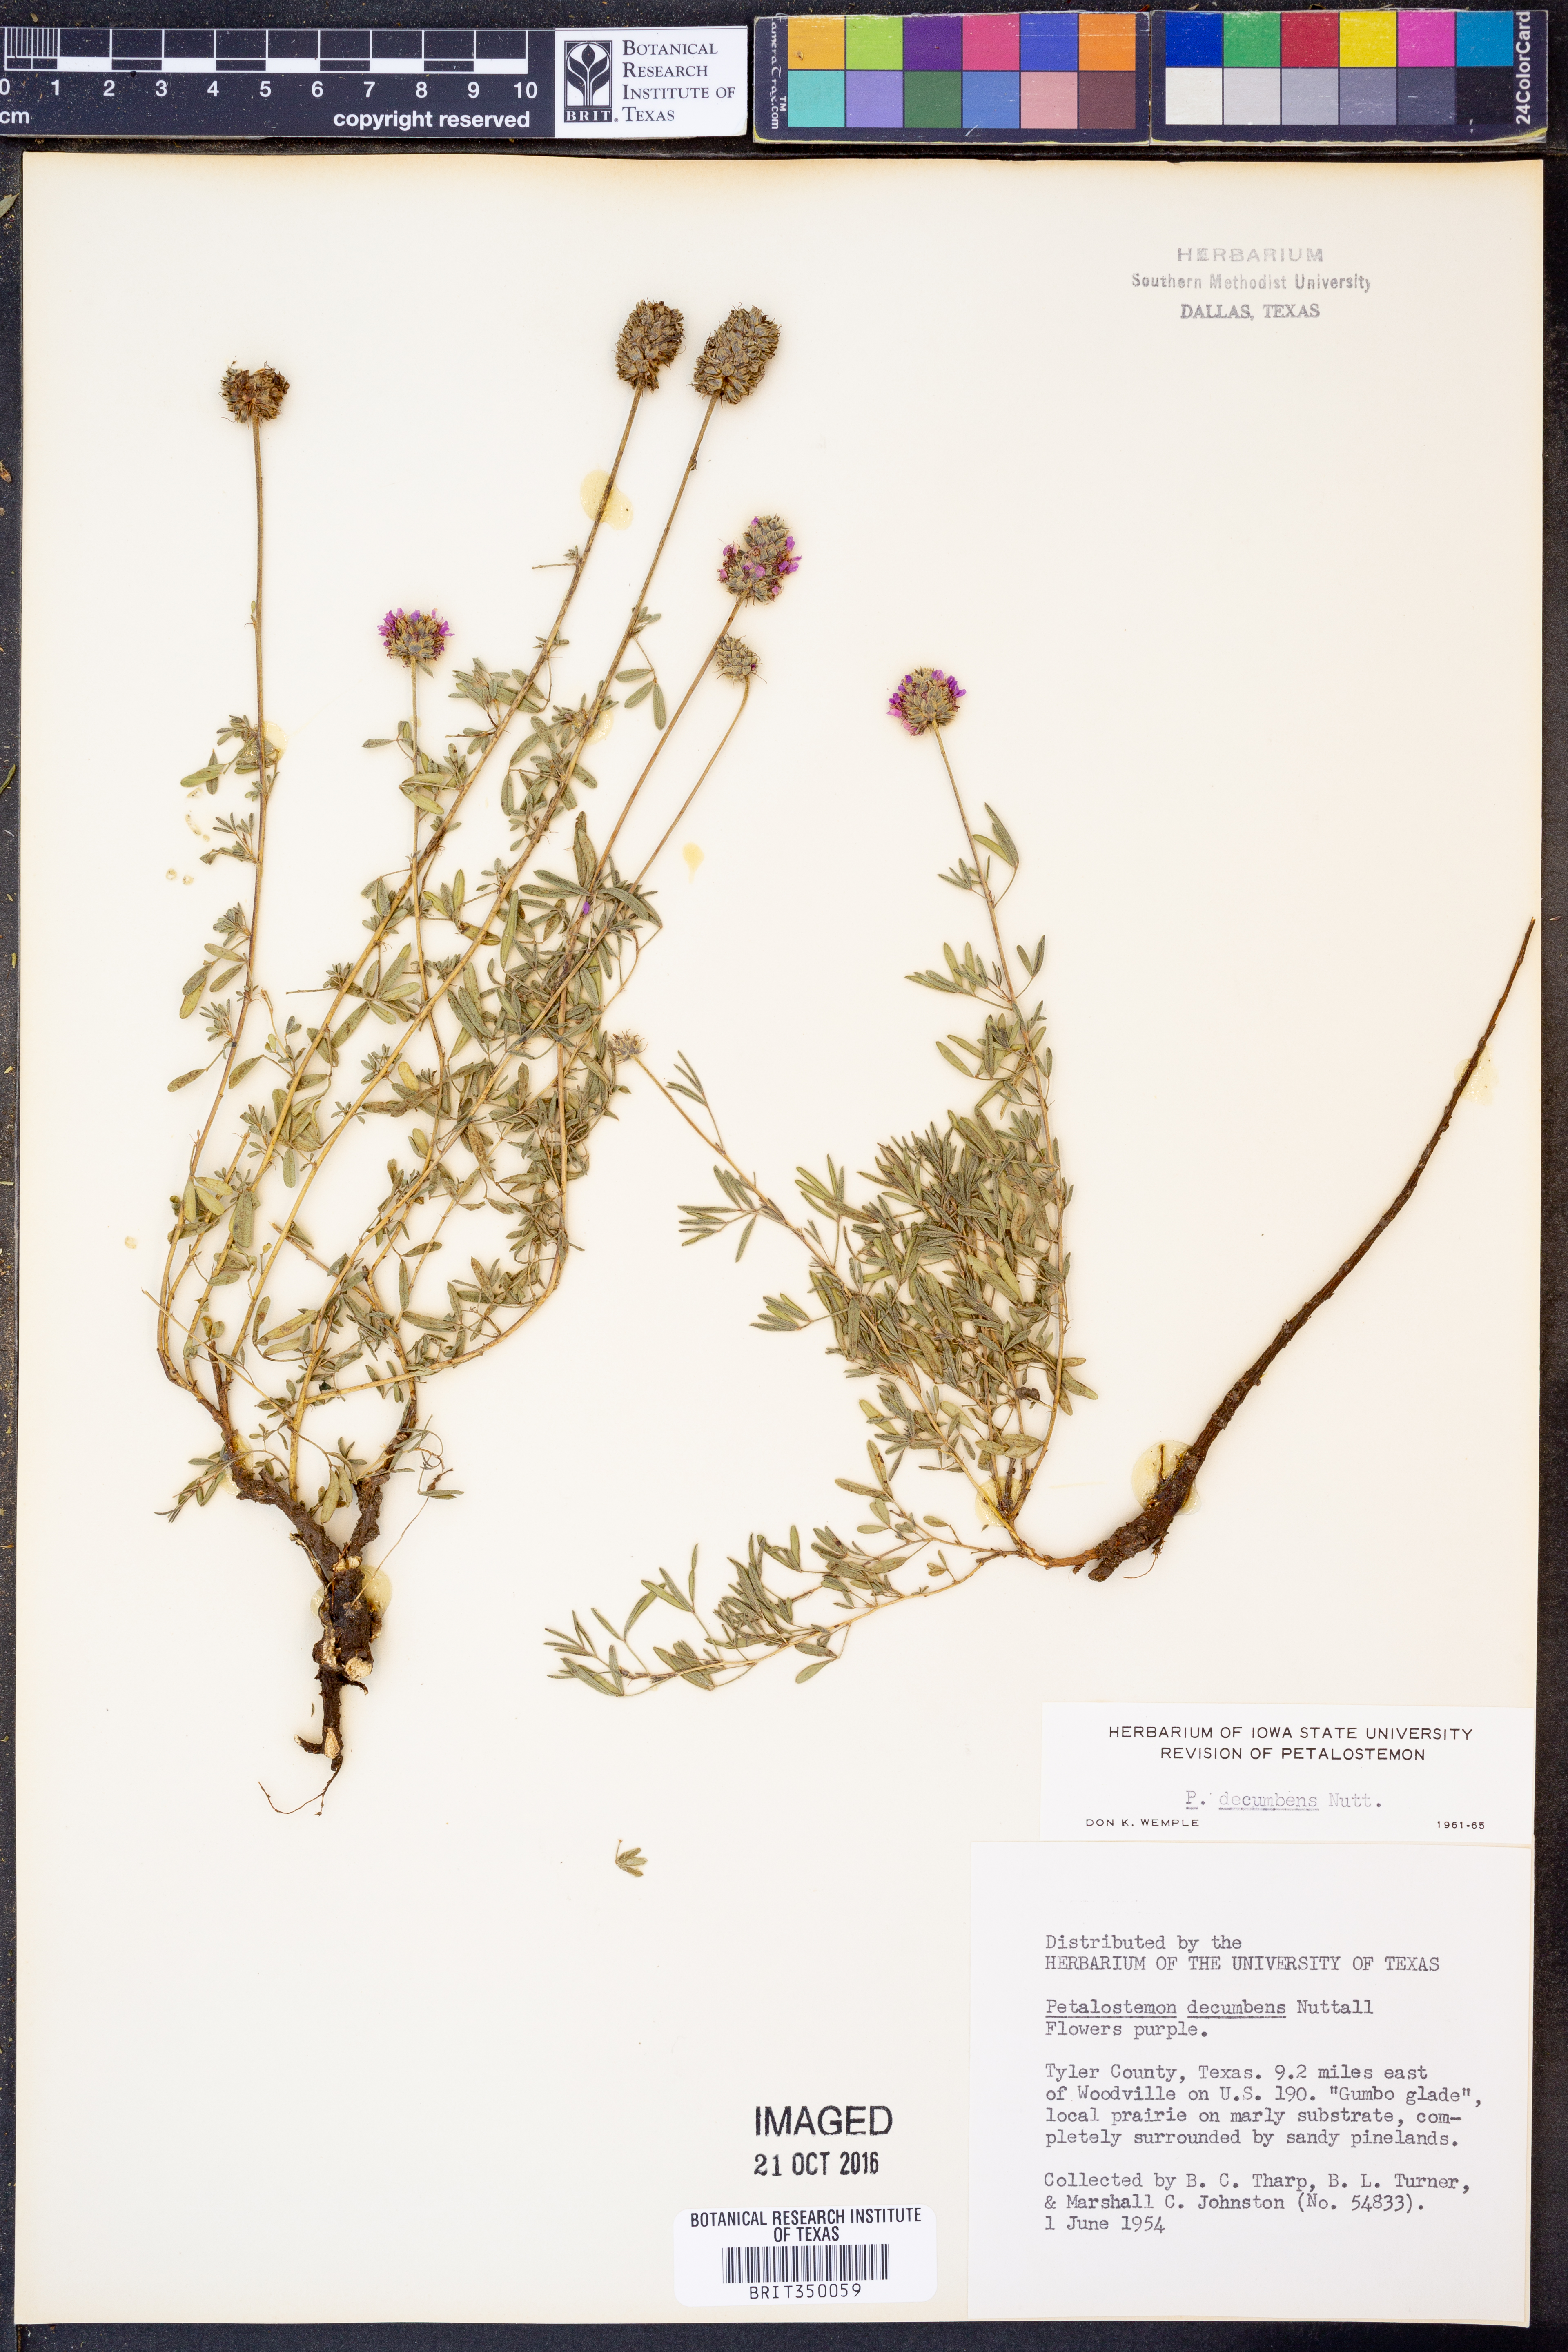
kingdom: Plantae
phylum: Tracheophyta
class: Magnoliopsida
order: Fabales
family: Fabaceae
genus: Dalea
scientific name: Dalea compacta
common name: Compact prairie-clover
